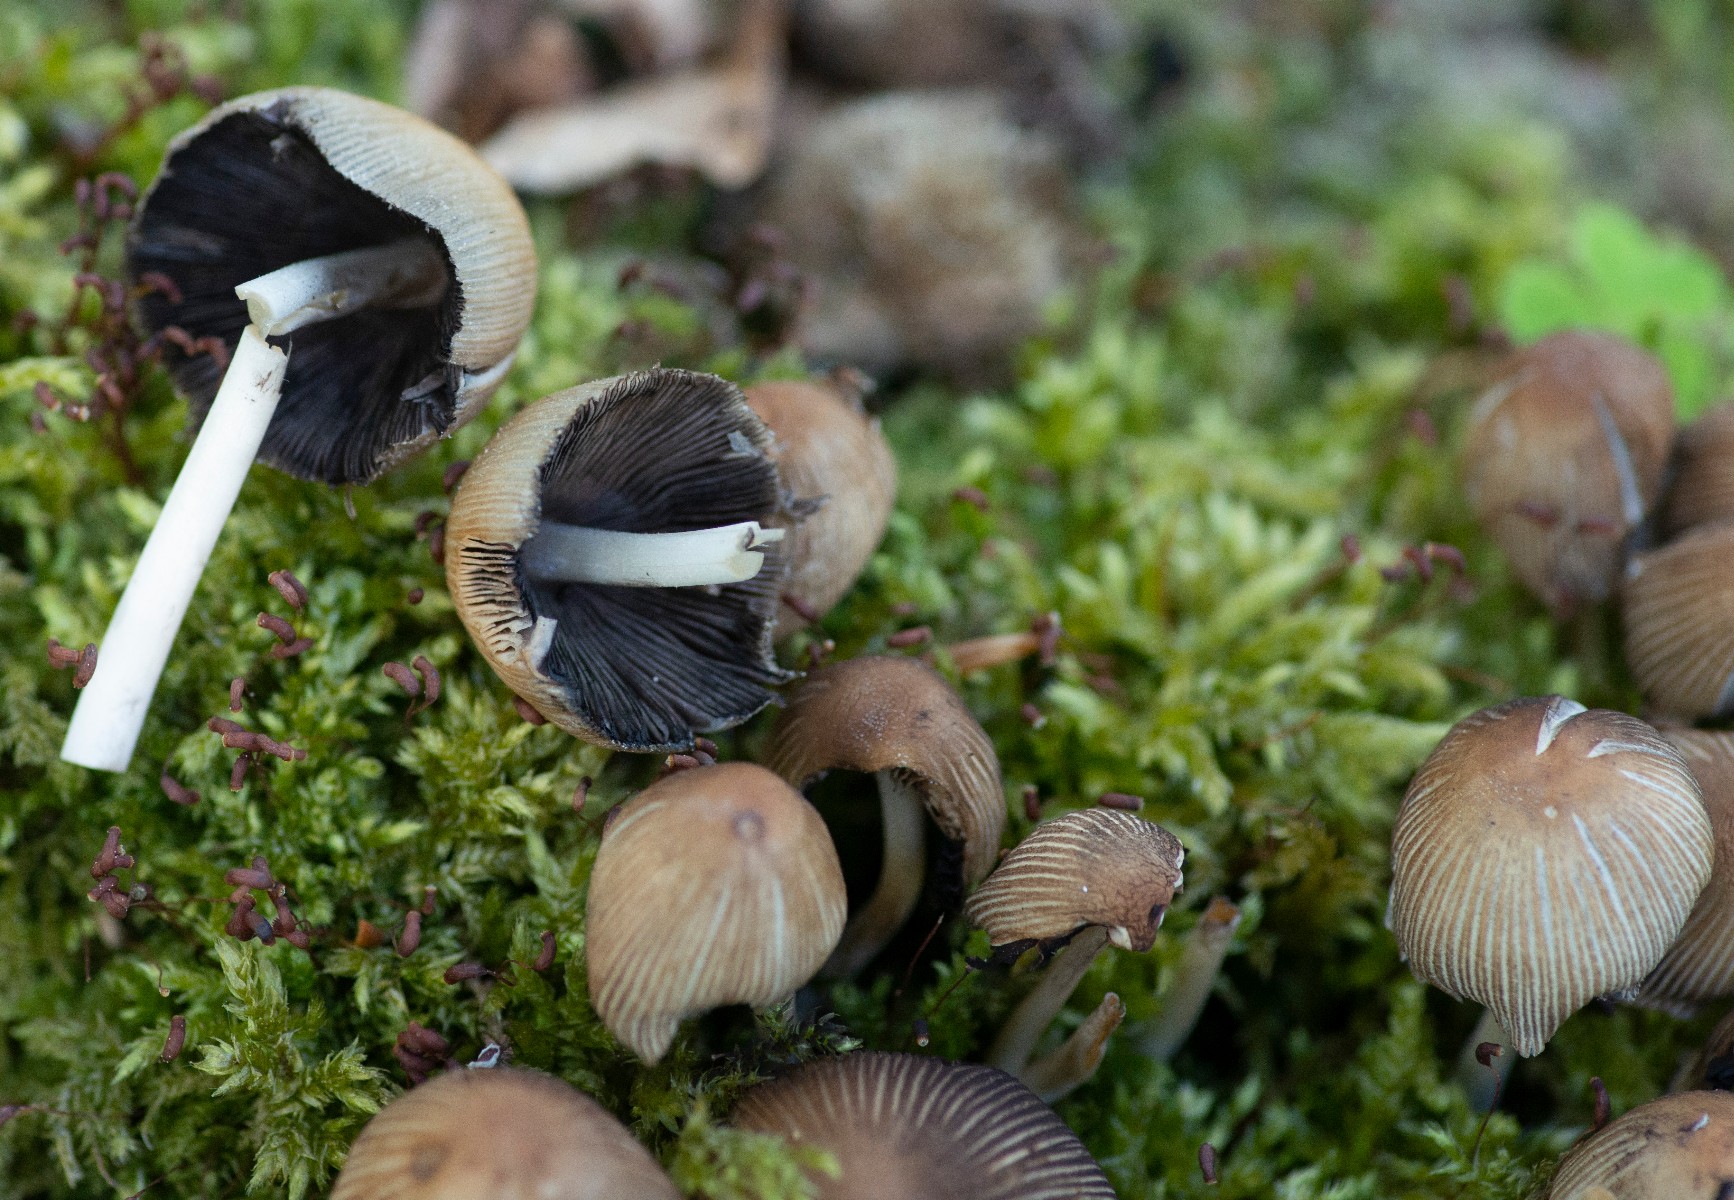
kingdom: Fungi
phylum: Basidiomycota
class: Agaricomycetes
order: Agaricales
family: Psathyrellaceae
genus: Coprinellus
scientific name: Coprinellus micaceus
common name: glimmer-blækhat
